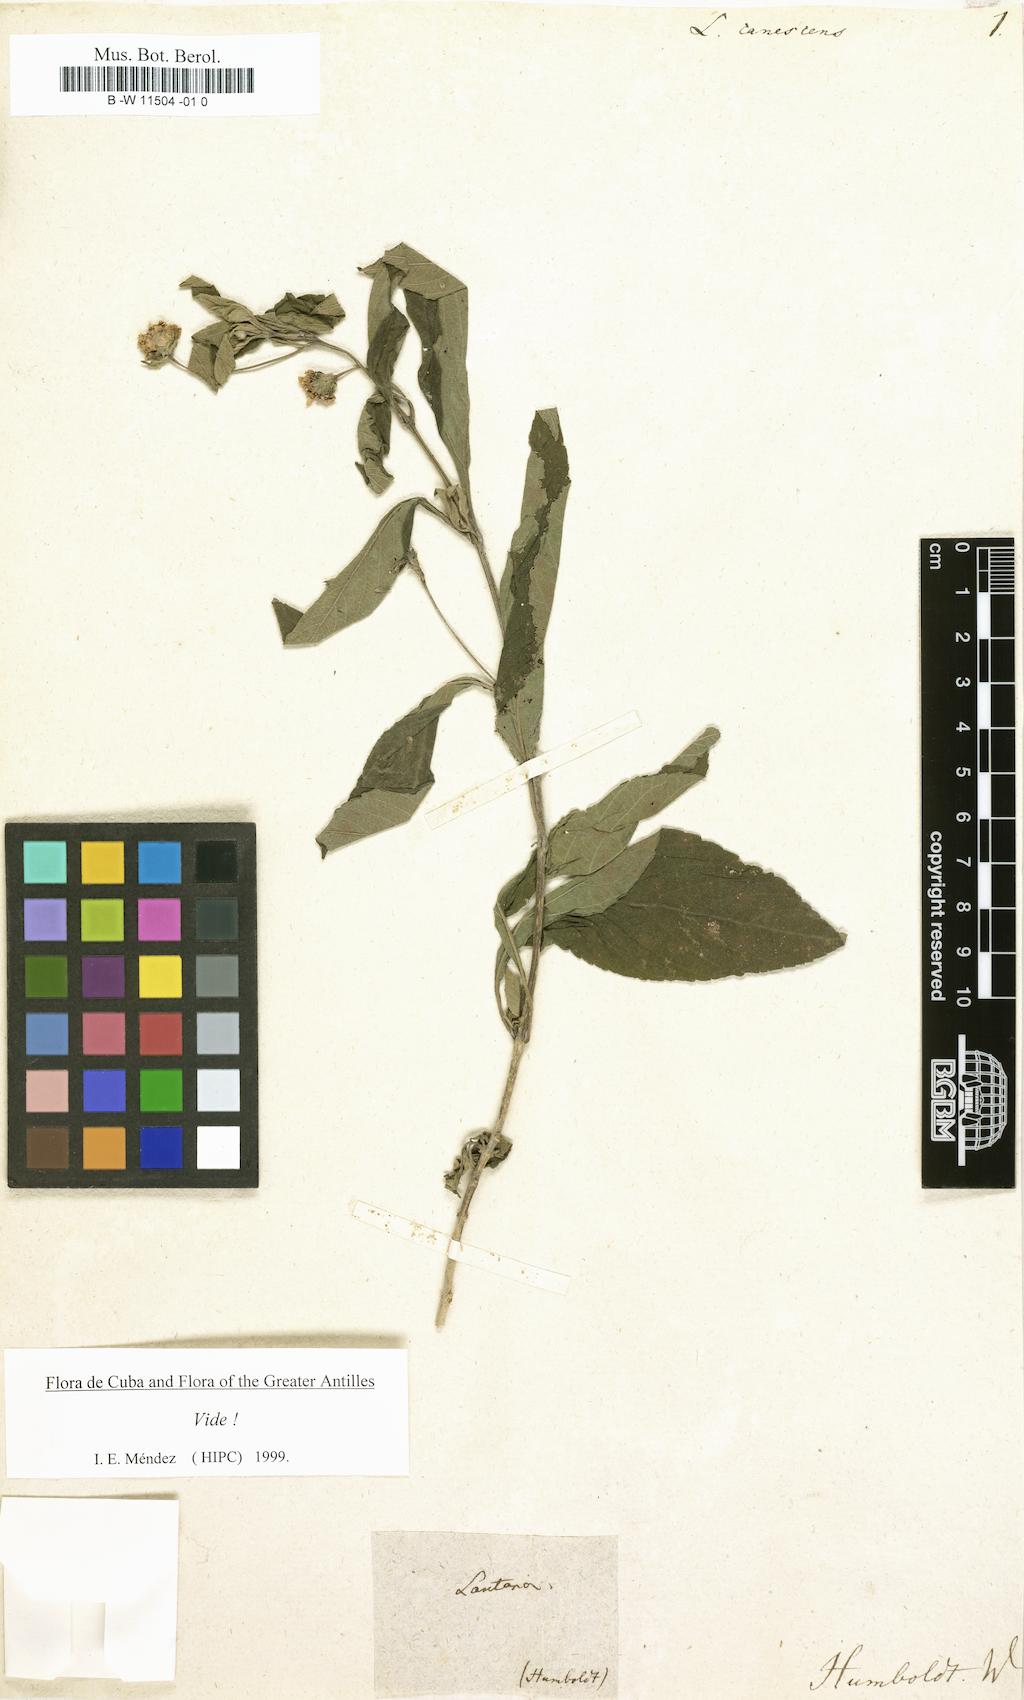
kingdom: Plantae
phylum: Tracheophyta
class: Magnoliopsida
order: Lamiales
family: Verbenaceae
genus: Lantana
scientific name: Lantana canescens
